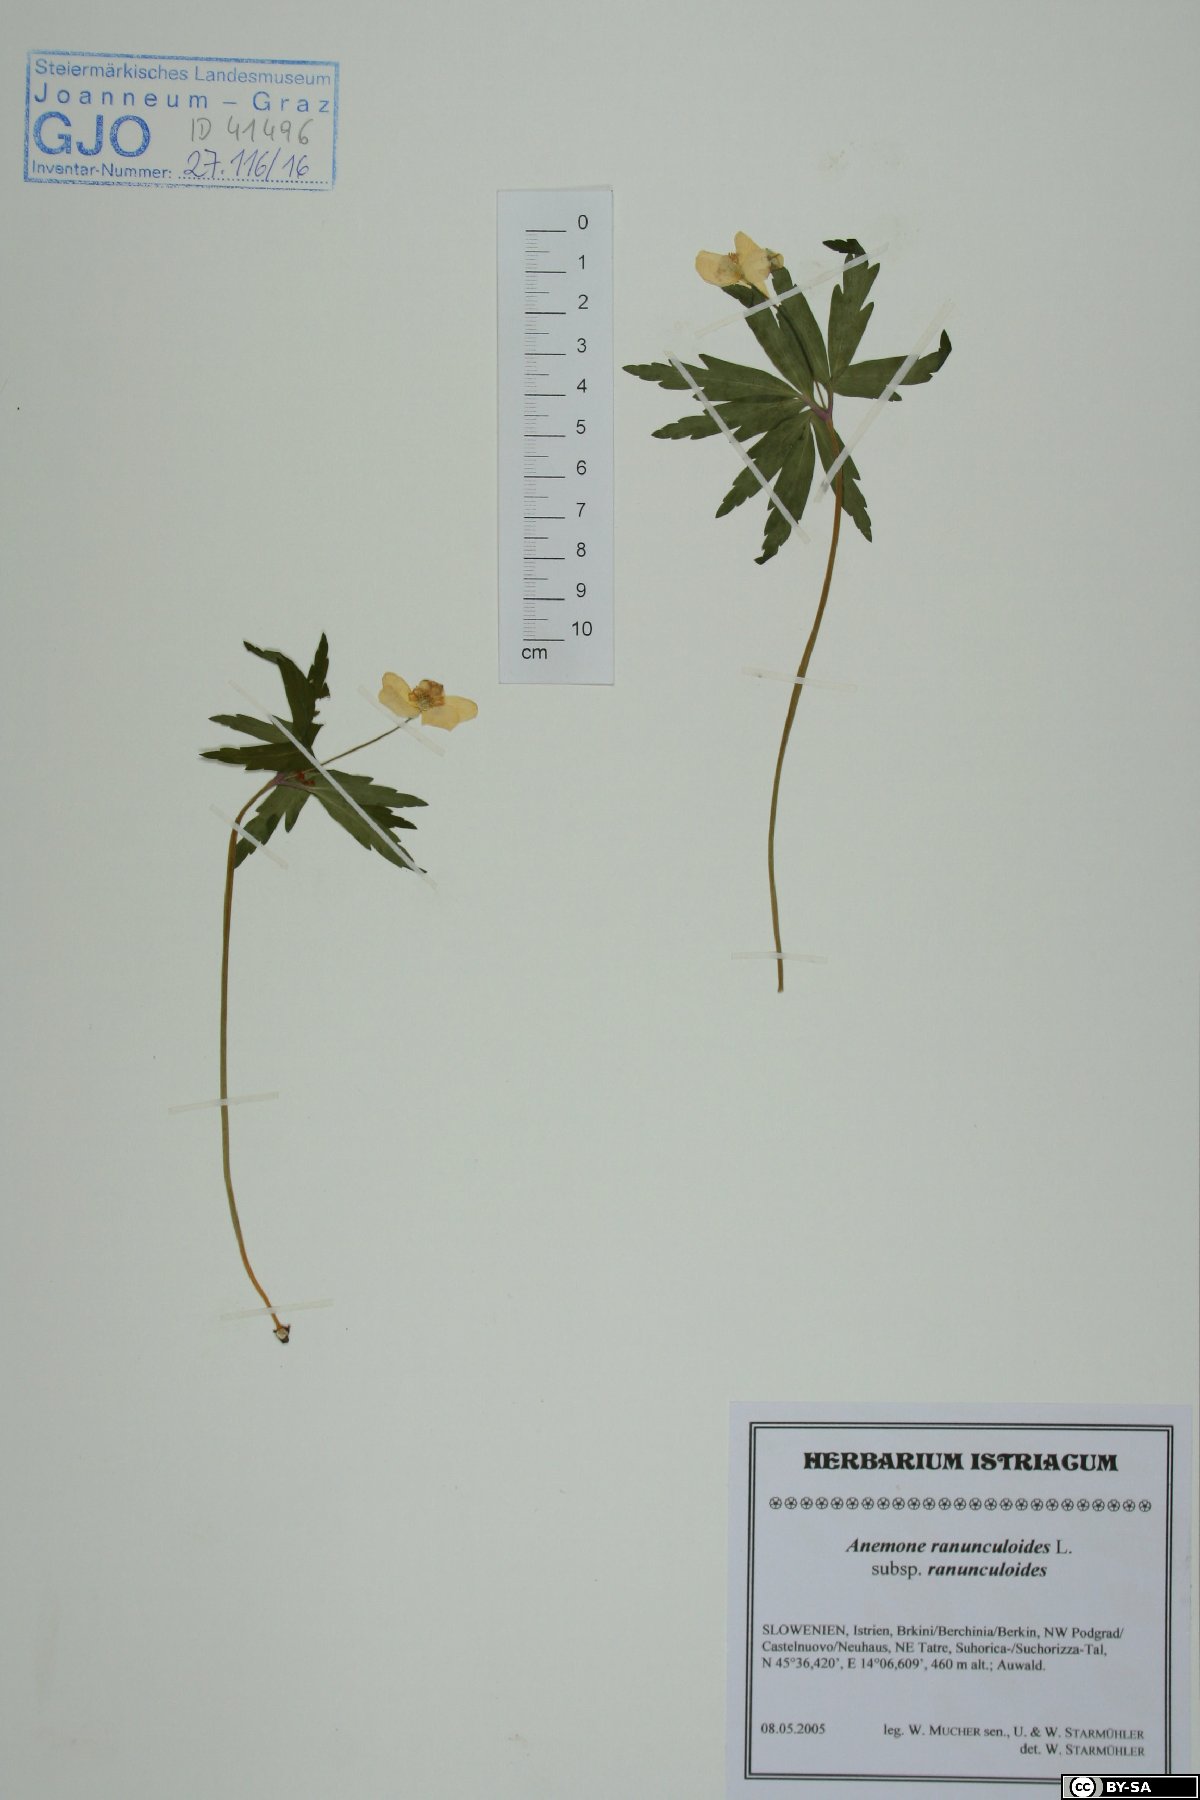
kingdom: Plantae
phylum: Tracheophyta
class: Magnoliopsida
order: Ranunculales
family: Ranunculaceae
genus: Anemone
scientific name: Anemone ranunculoides
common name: Yellow anemone
